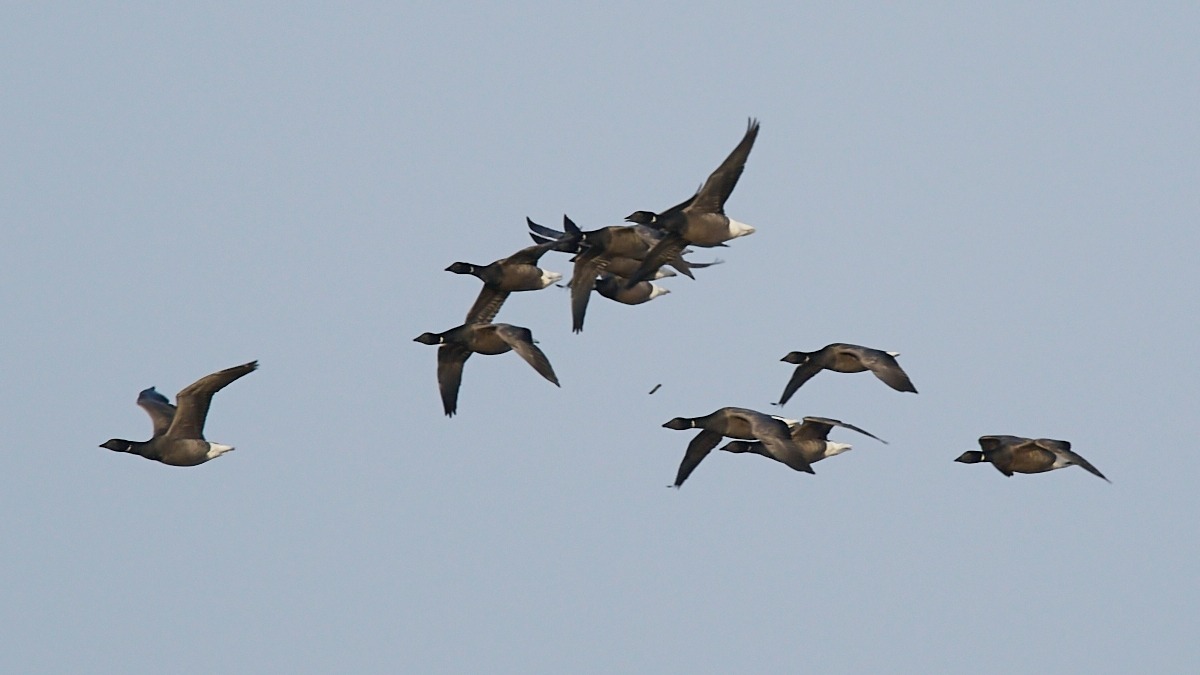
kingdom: Animalia
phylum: Chordata
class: Aves
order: Anseriformes
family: Anatidae
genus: Branta
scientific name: Branta bernicla
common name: Knortegås
